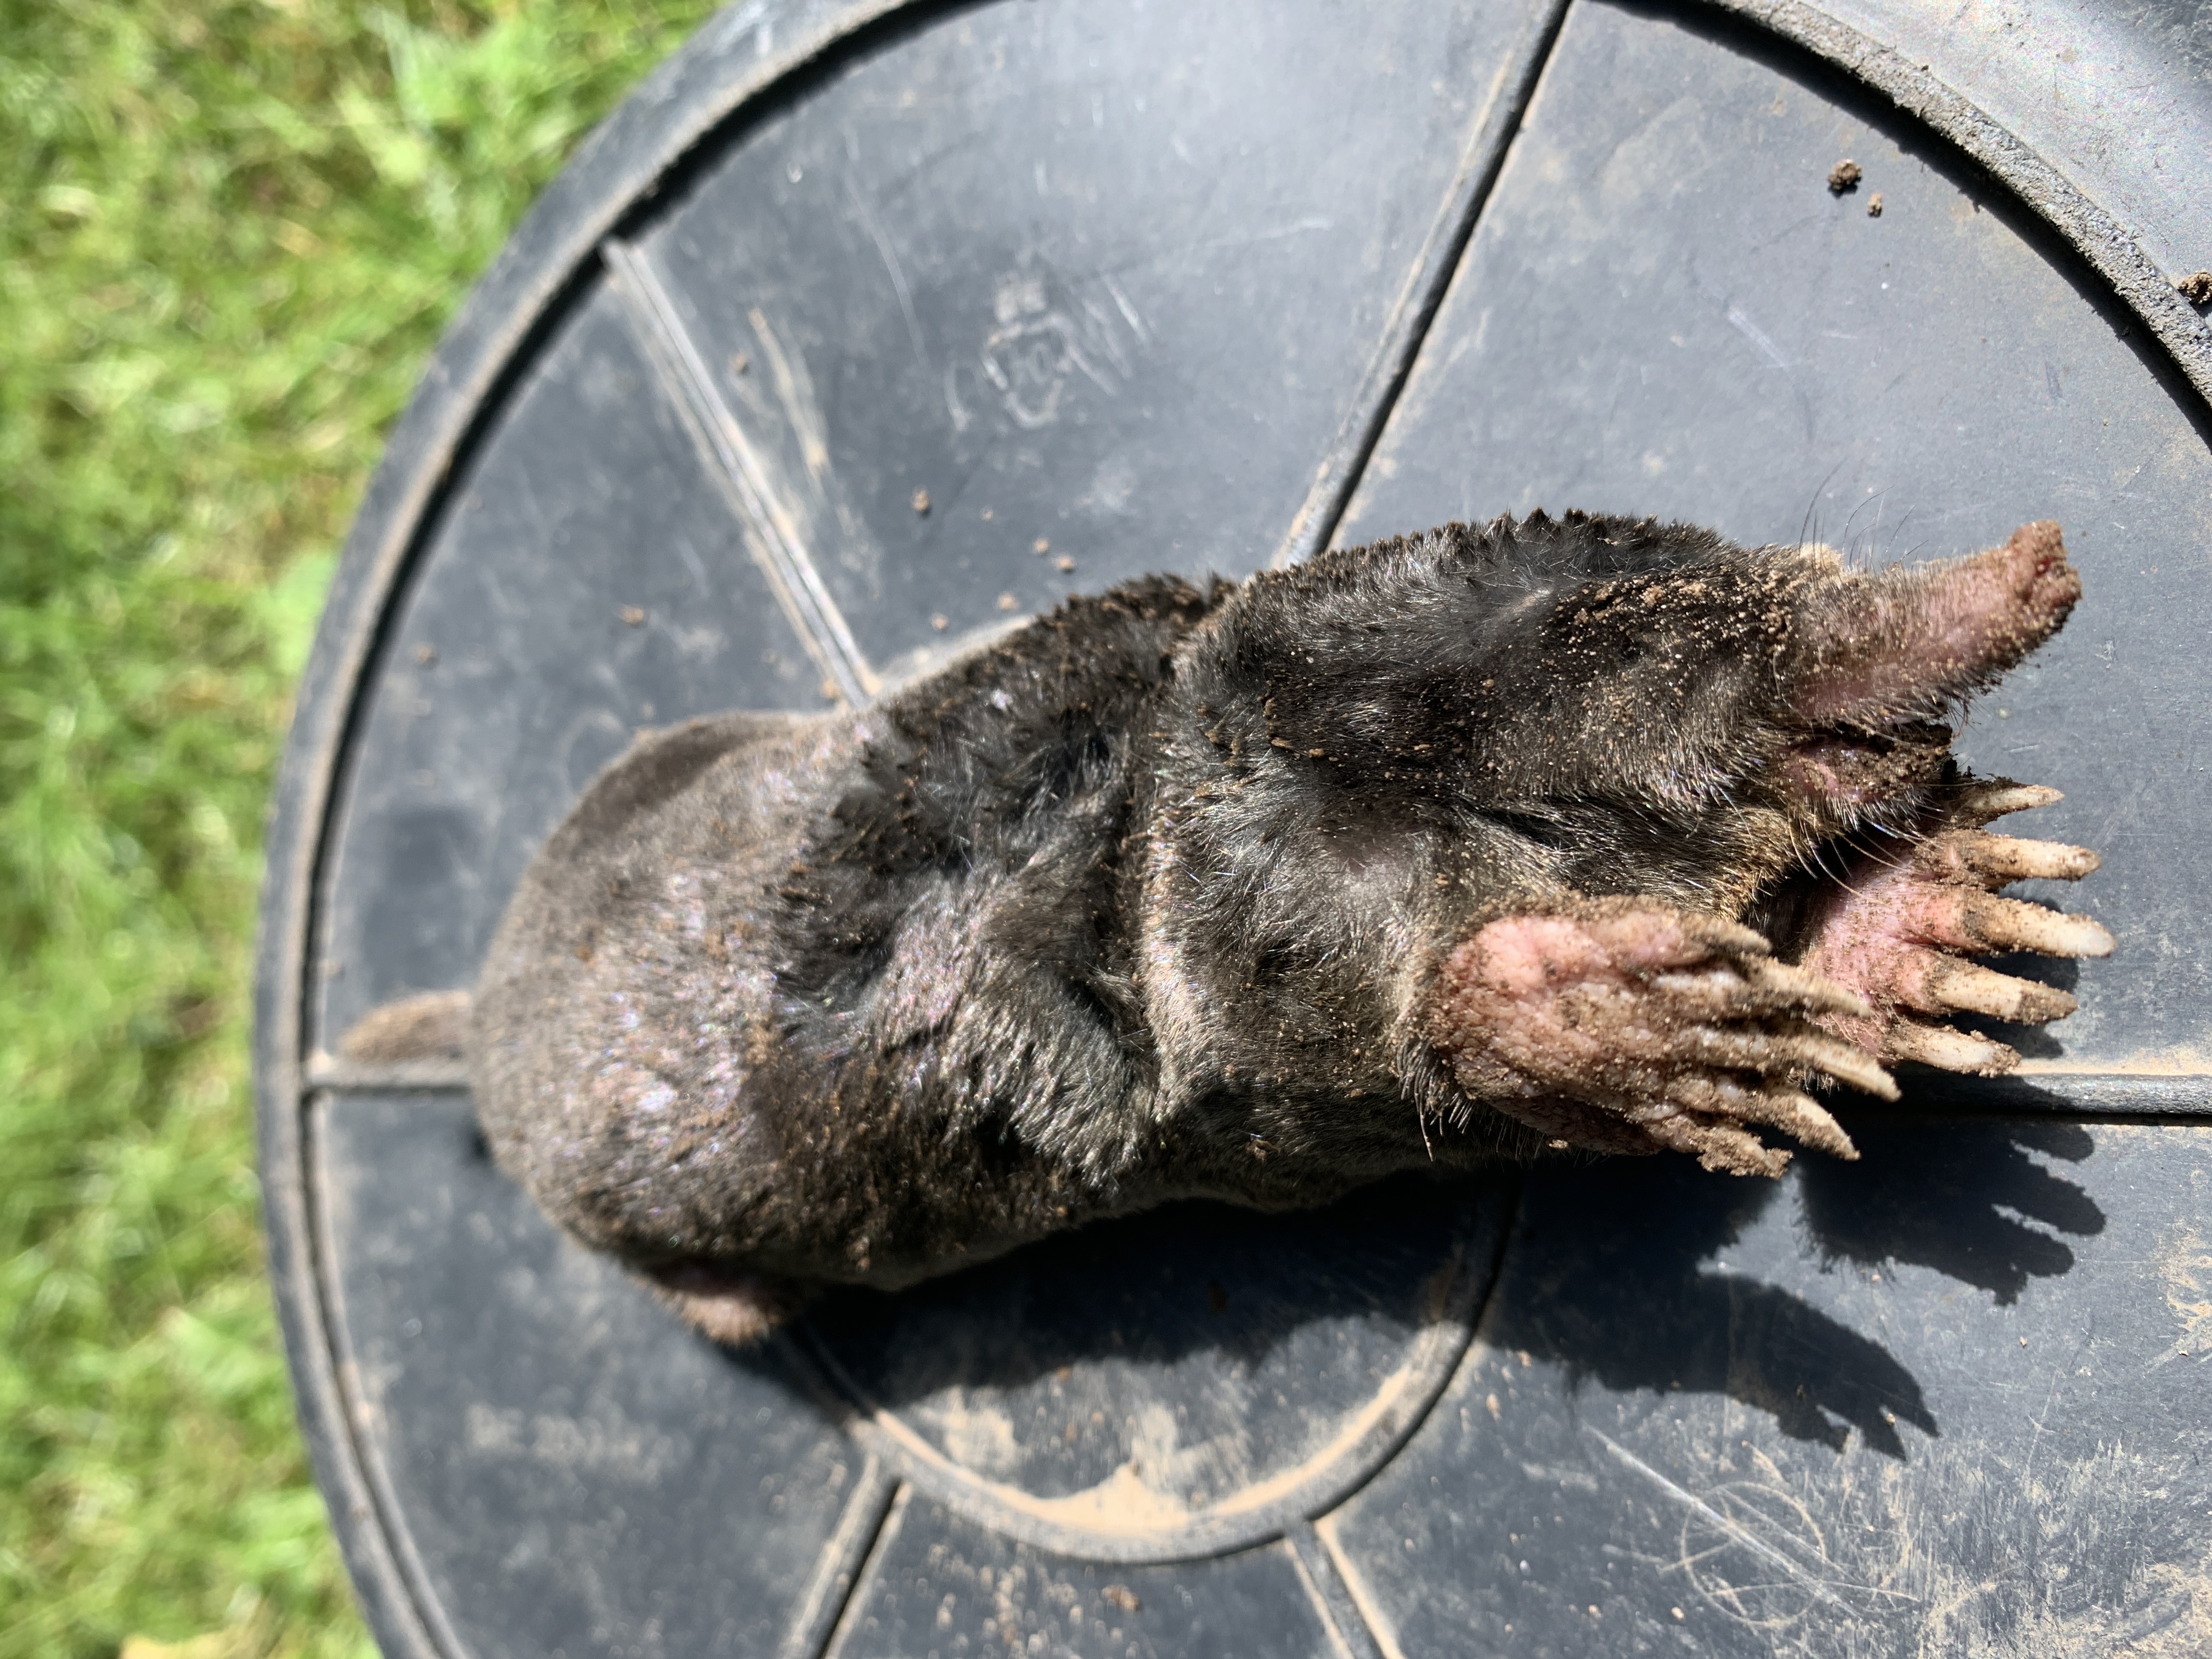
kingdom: Animalia
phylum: Chordata
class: Mammalia
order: Soricomorpha
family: Talpidae
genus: Talpa
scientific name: Talpa europaea
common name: Muldvarp
